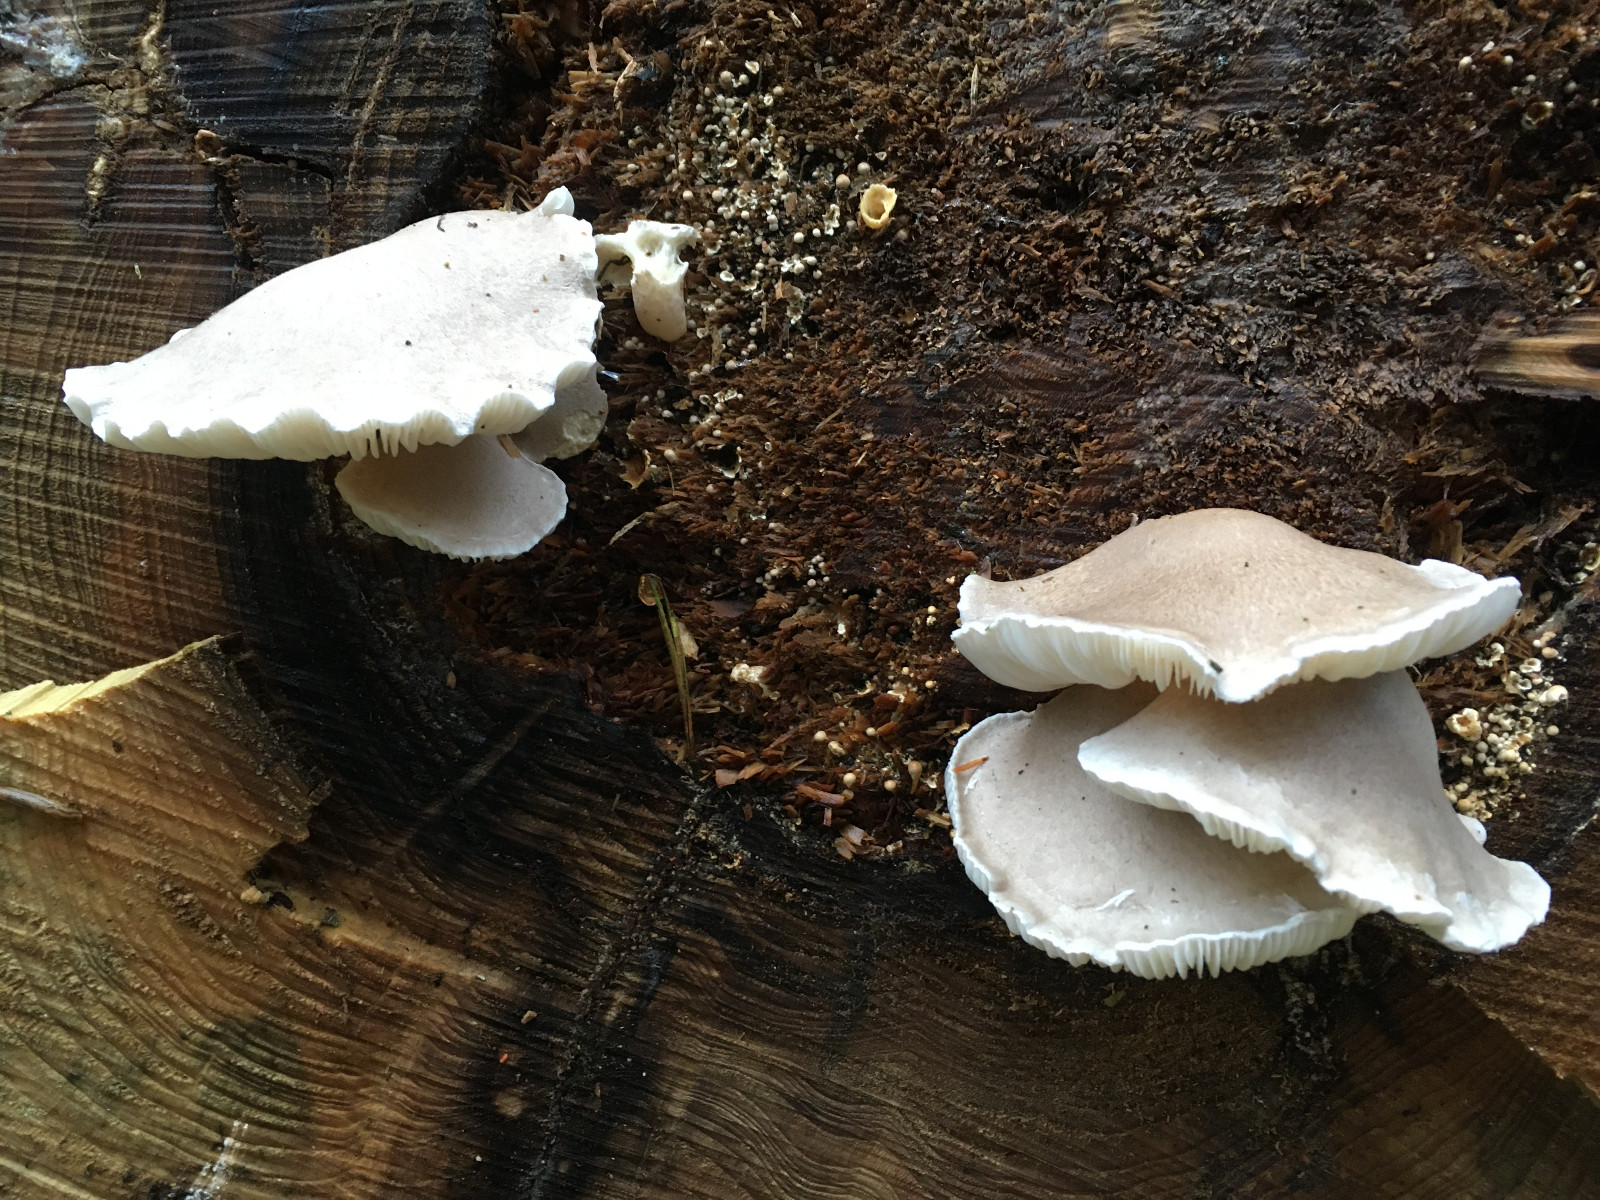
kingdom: Fungi
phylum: Basidiomycota
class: Agaricomycetes
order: Agaricales
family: Pleurotaceae
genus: Pleurotus
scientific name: Pleurotus dryinus
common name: korkagtig østershat
